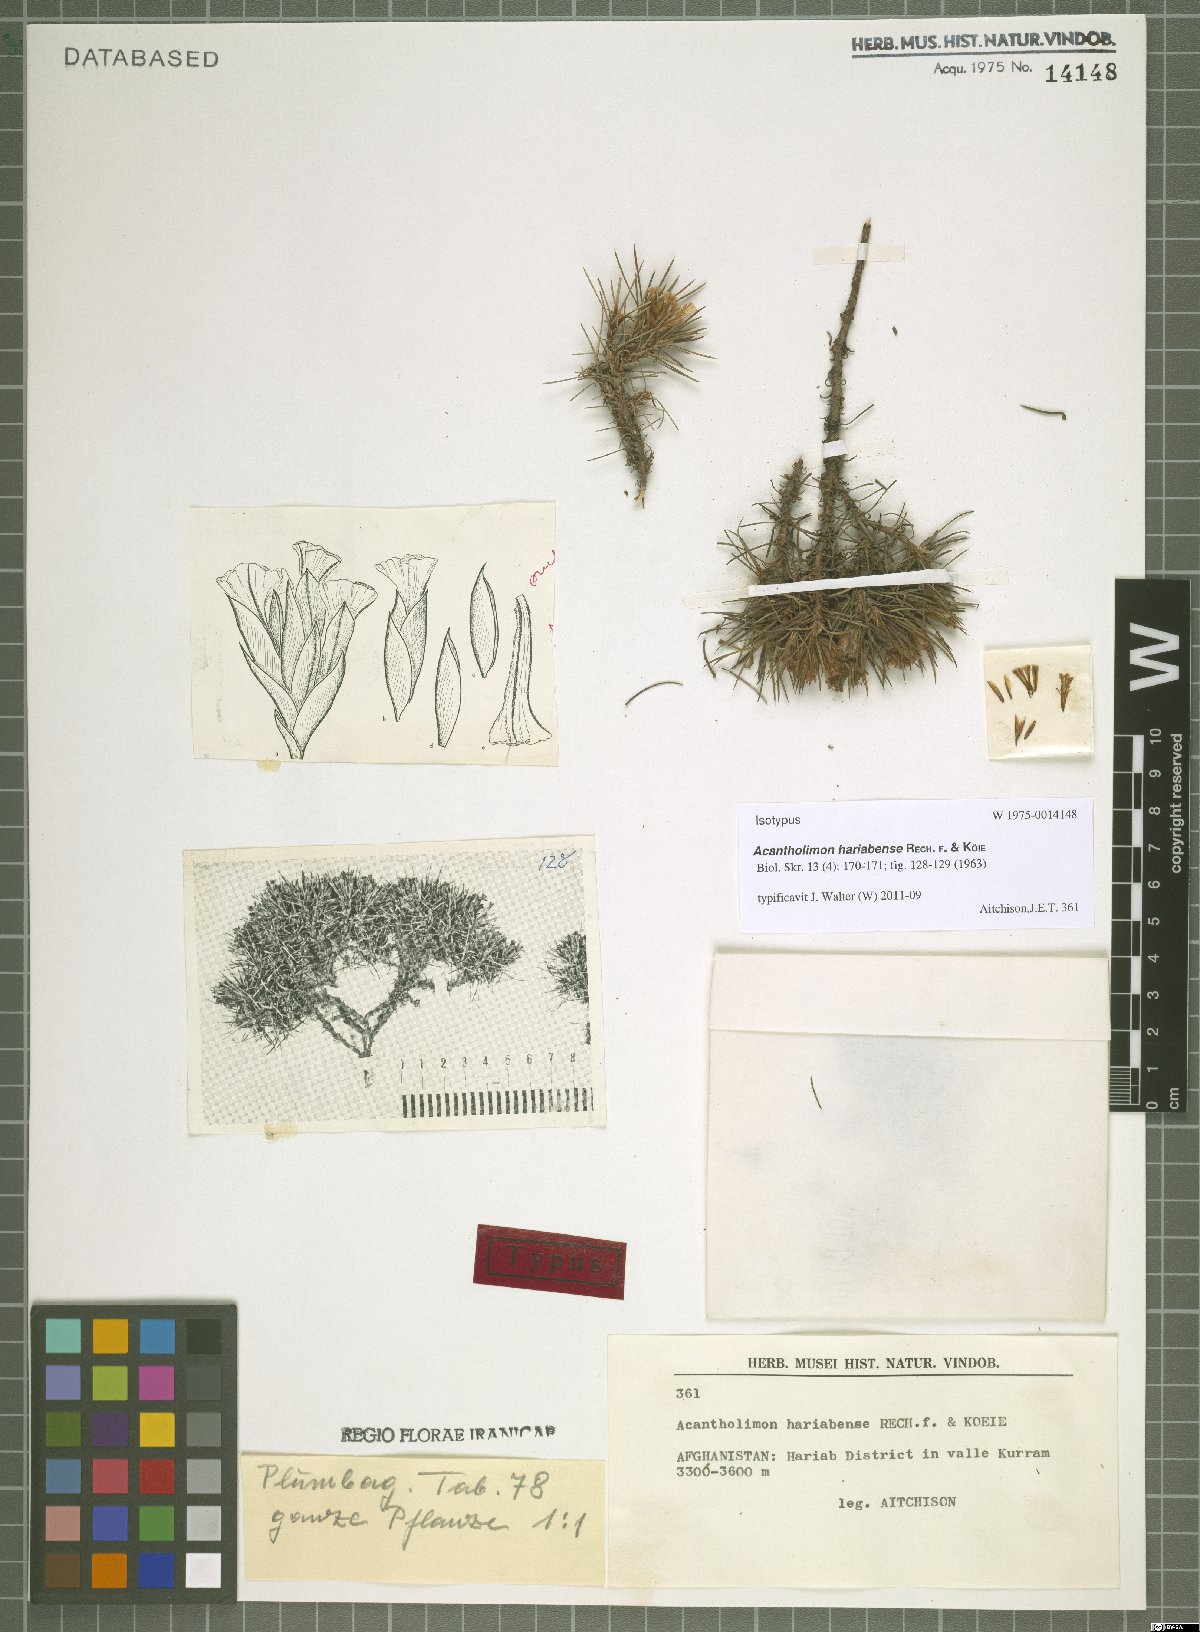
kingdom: Plantae
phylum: Tracheophyta
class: Magnoliopsida
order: Caryophyllales
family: Plumbaginaceae
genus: Acantholimon
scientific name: Acantholimon hariabense
